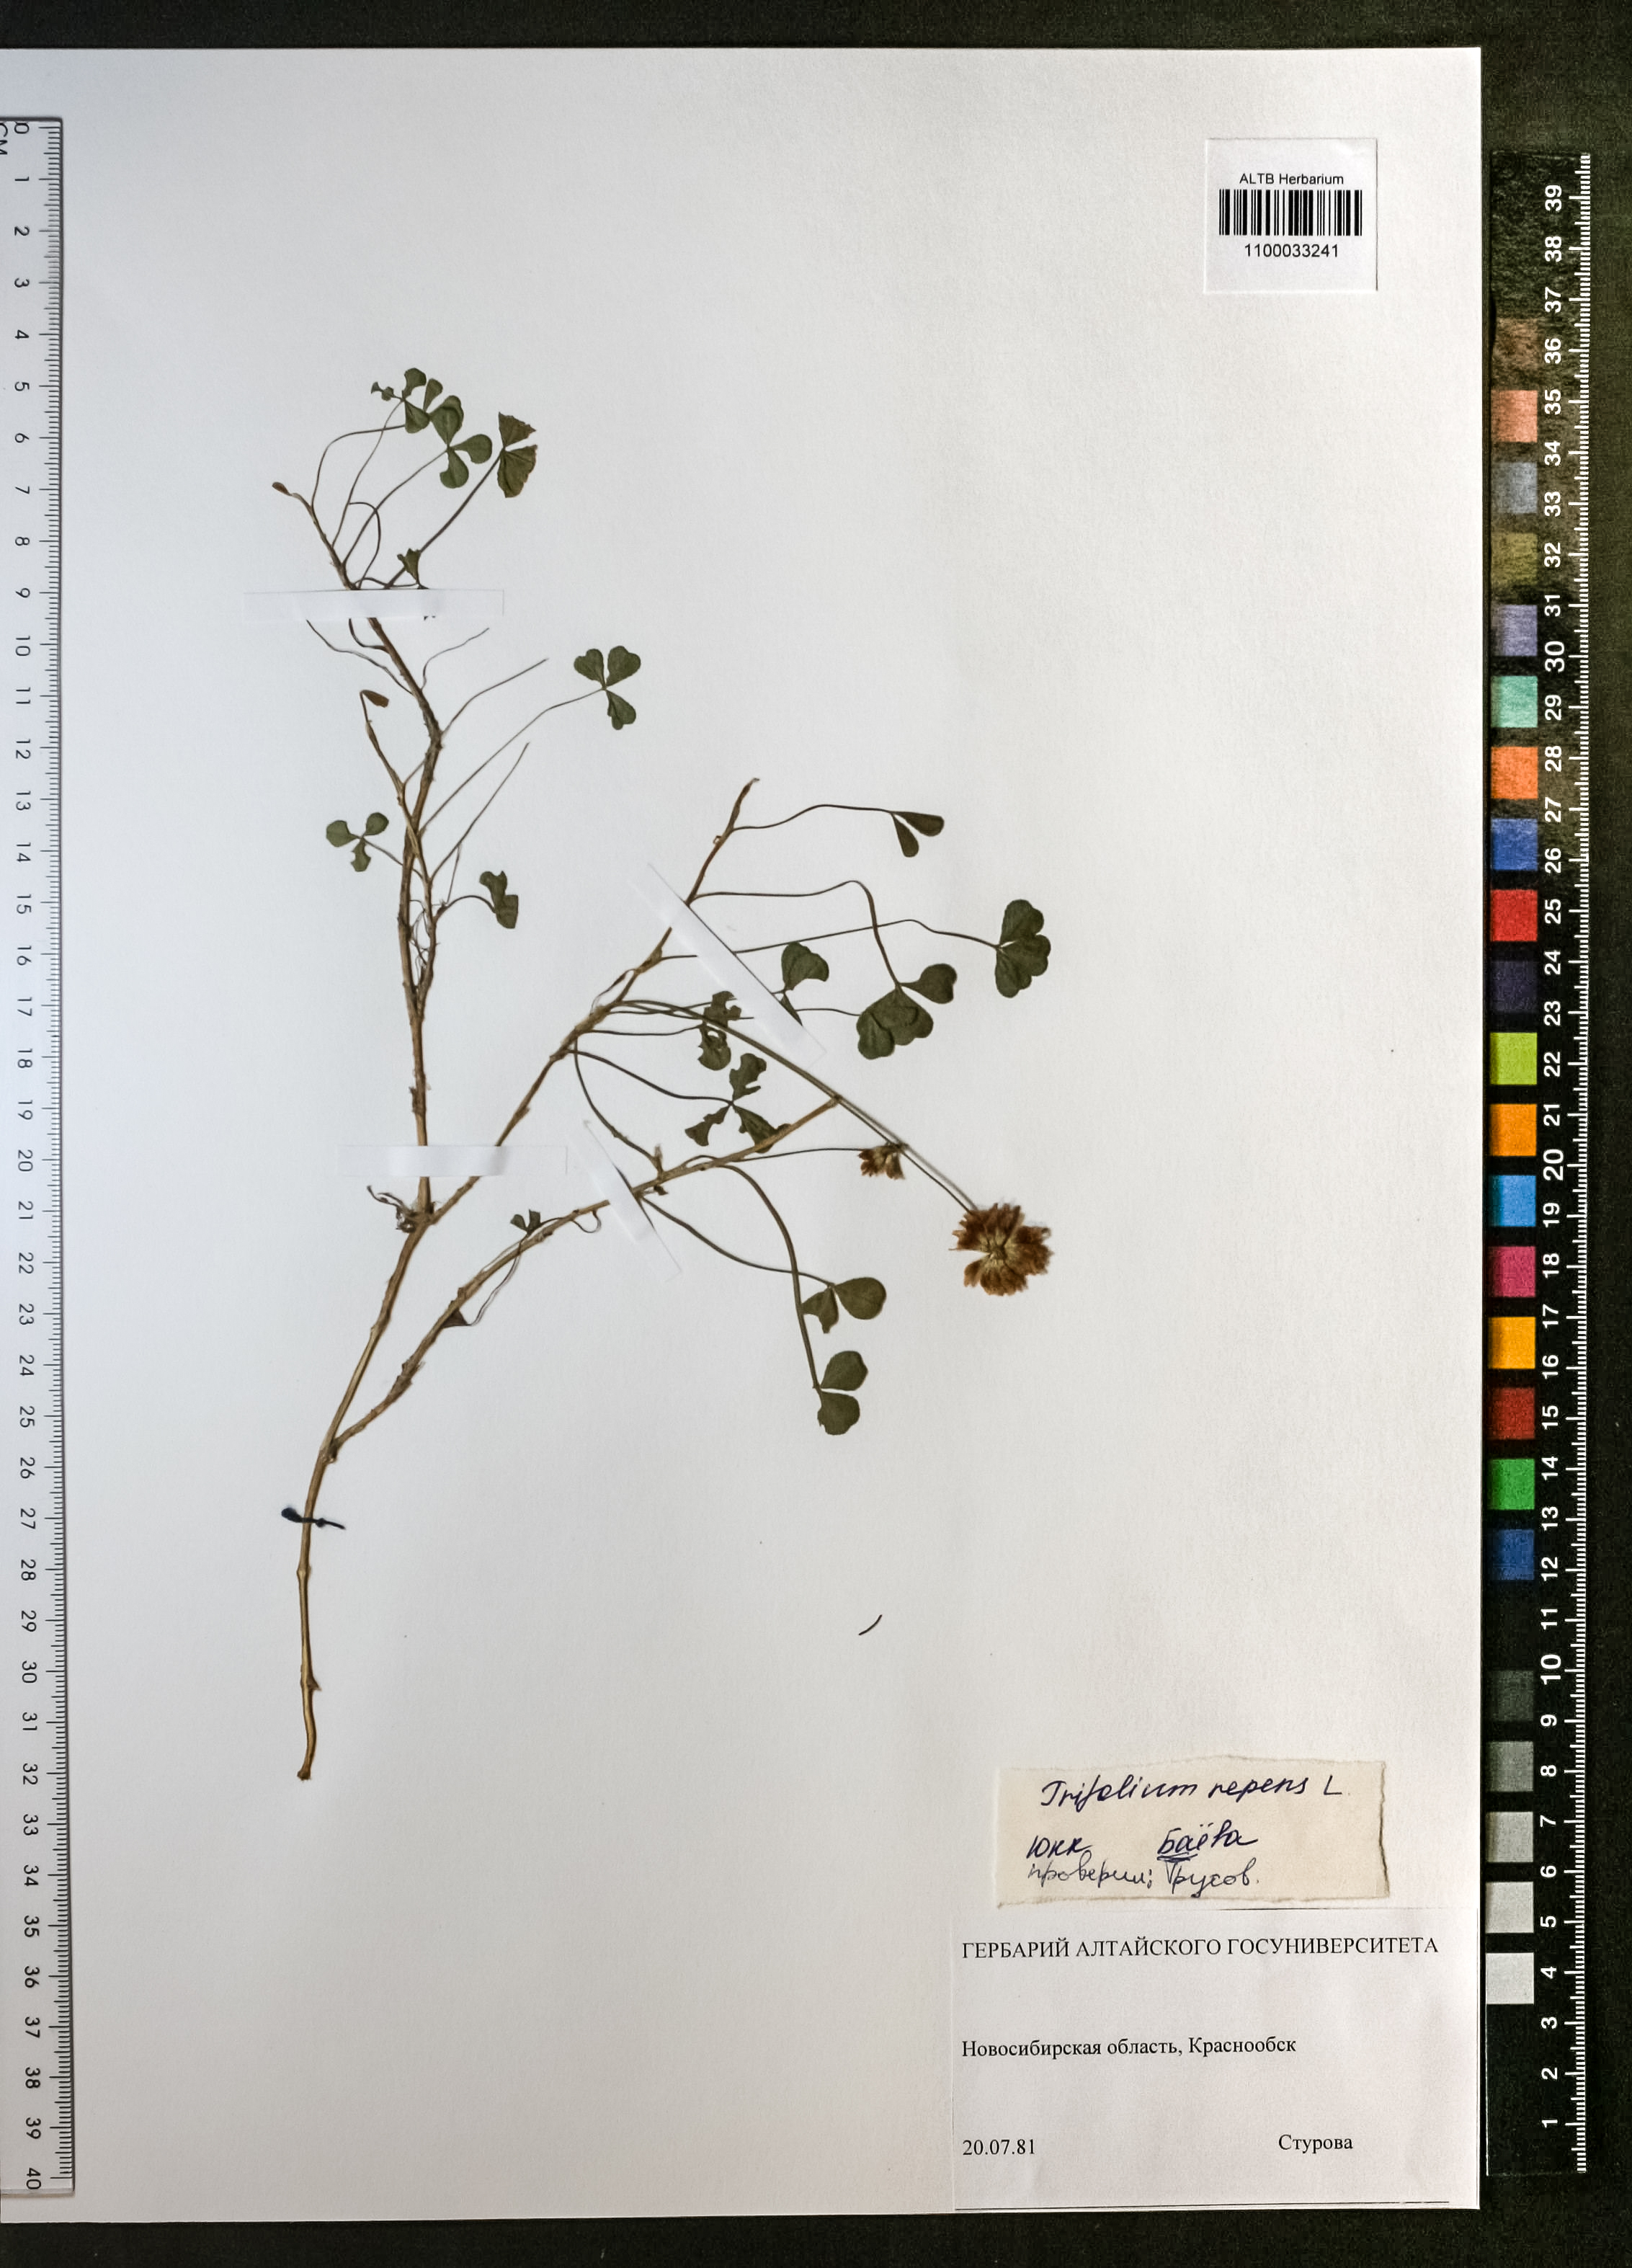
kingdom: Plantae
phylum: Tracheophyta
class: Magnoliopsida
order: Fabales
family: Fabaceae
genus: Trifolium
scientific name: Trifolium repens
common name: White clover
